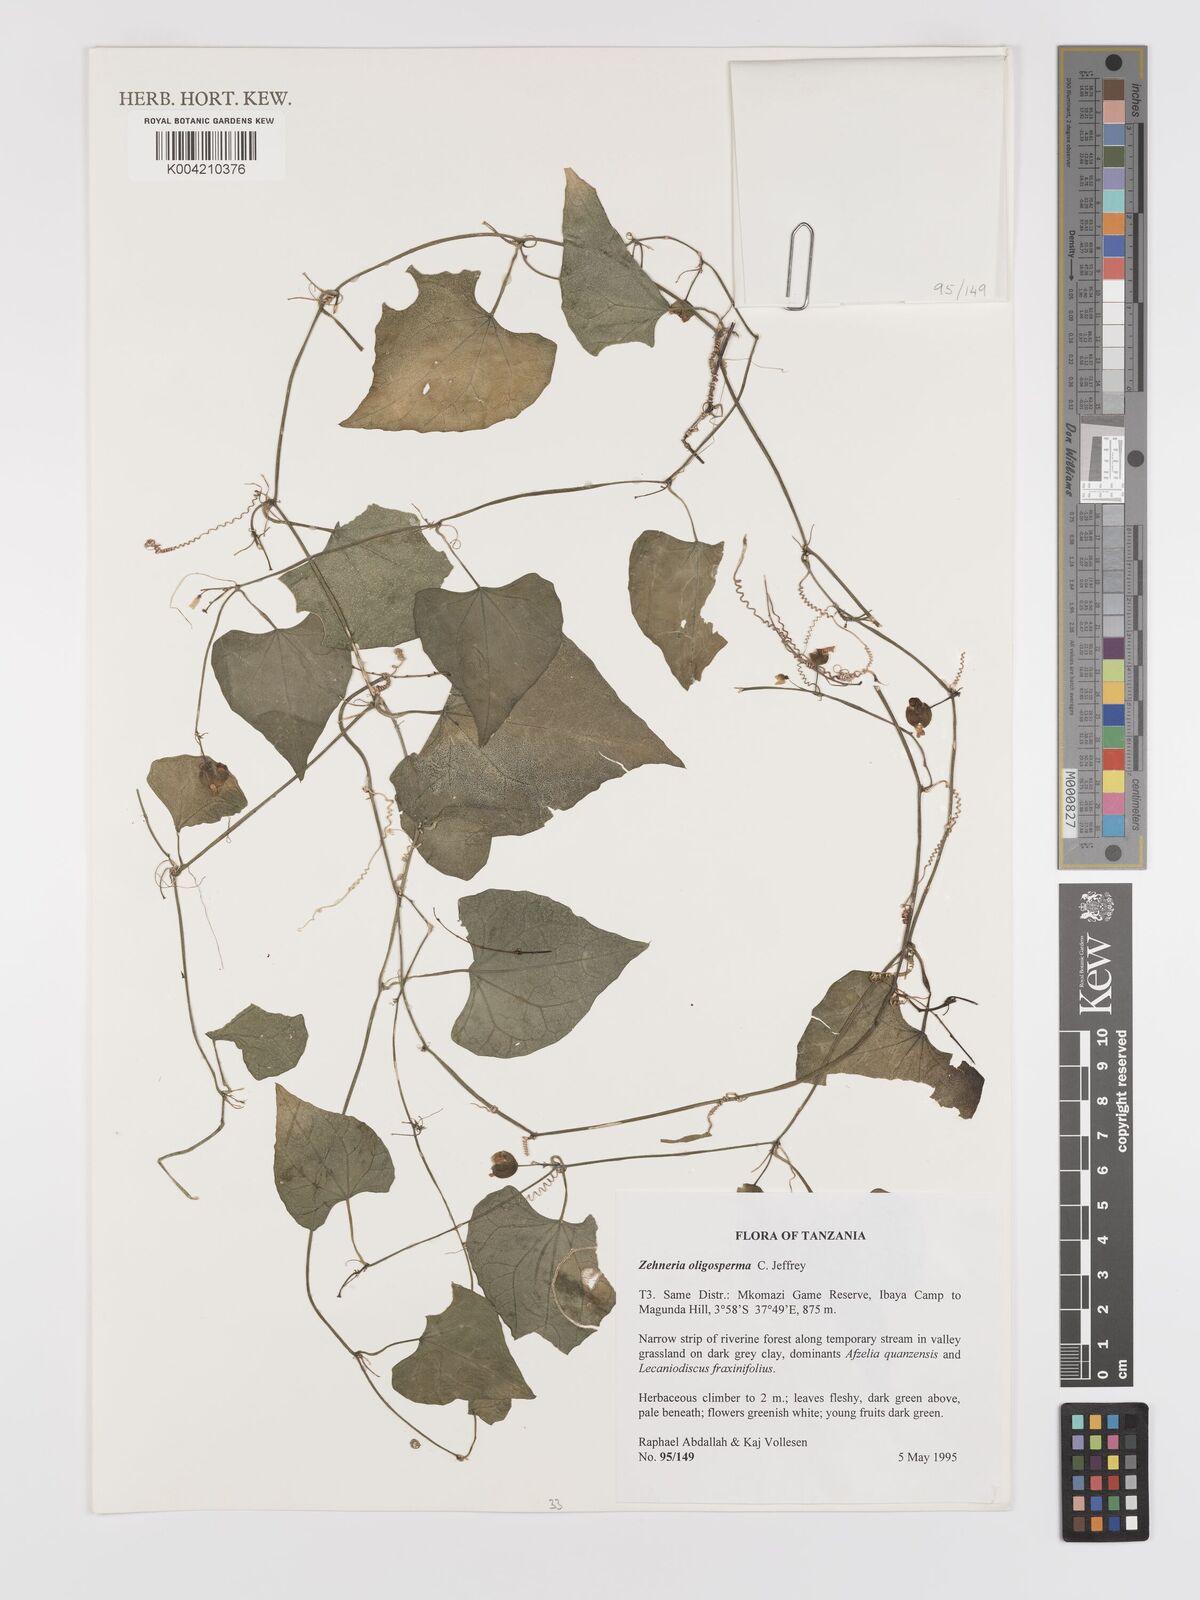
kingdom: Plantae
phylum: Tracheophyta
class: Magnoliopsida
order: Cucurbitales
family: Cucurbitaceae
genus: Zehneria
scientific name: Zehneria oligosperma
